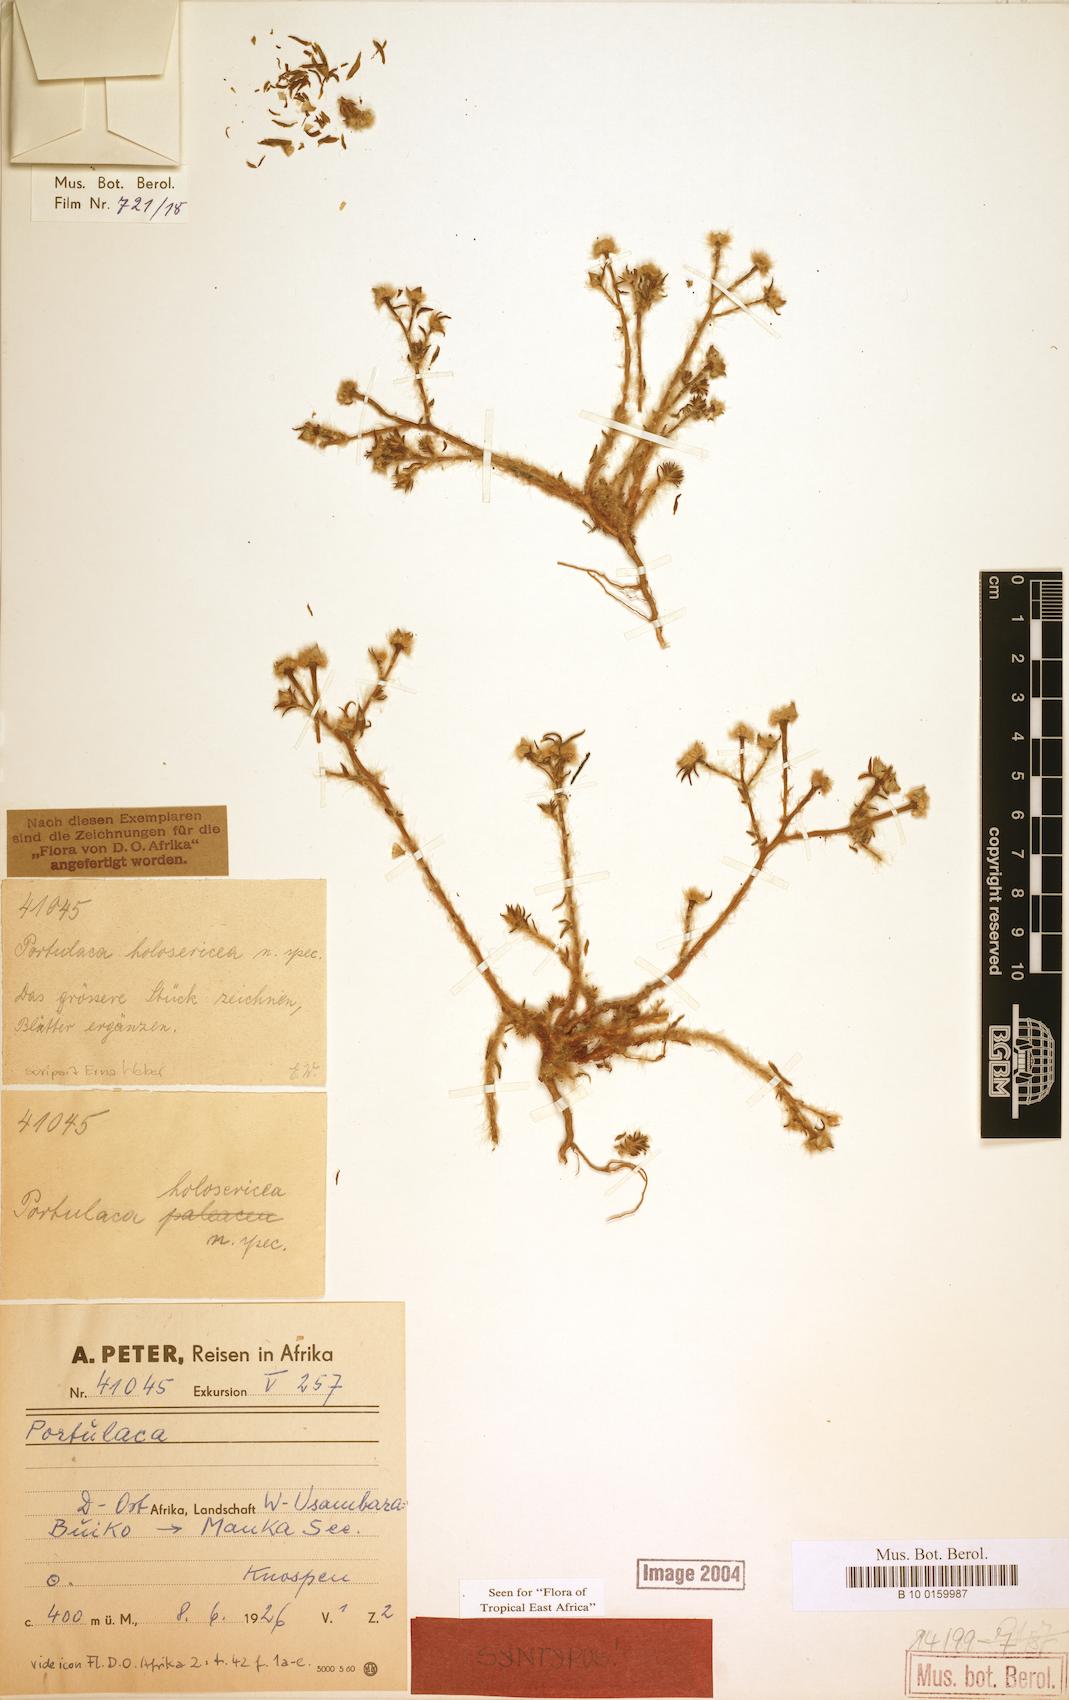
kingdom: Plantae
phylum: Tracheophyta
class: Magnoliopsida
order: Caryophyllales
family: Portulacaceae
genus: Portulaca
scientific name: Portulaca kermesina
